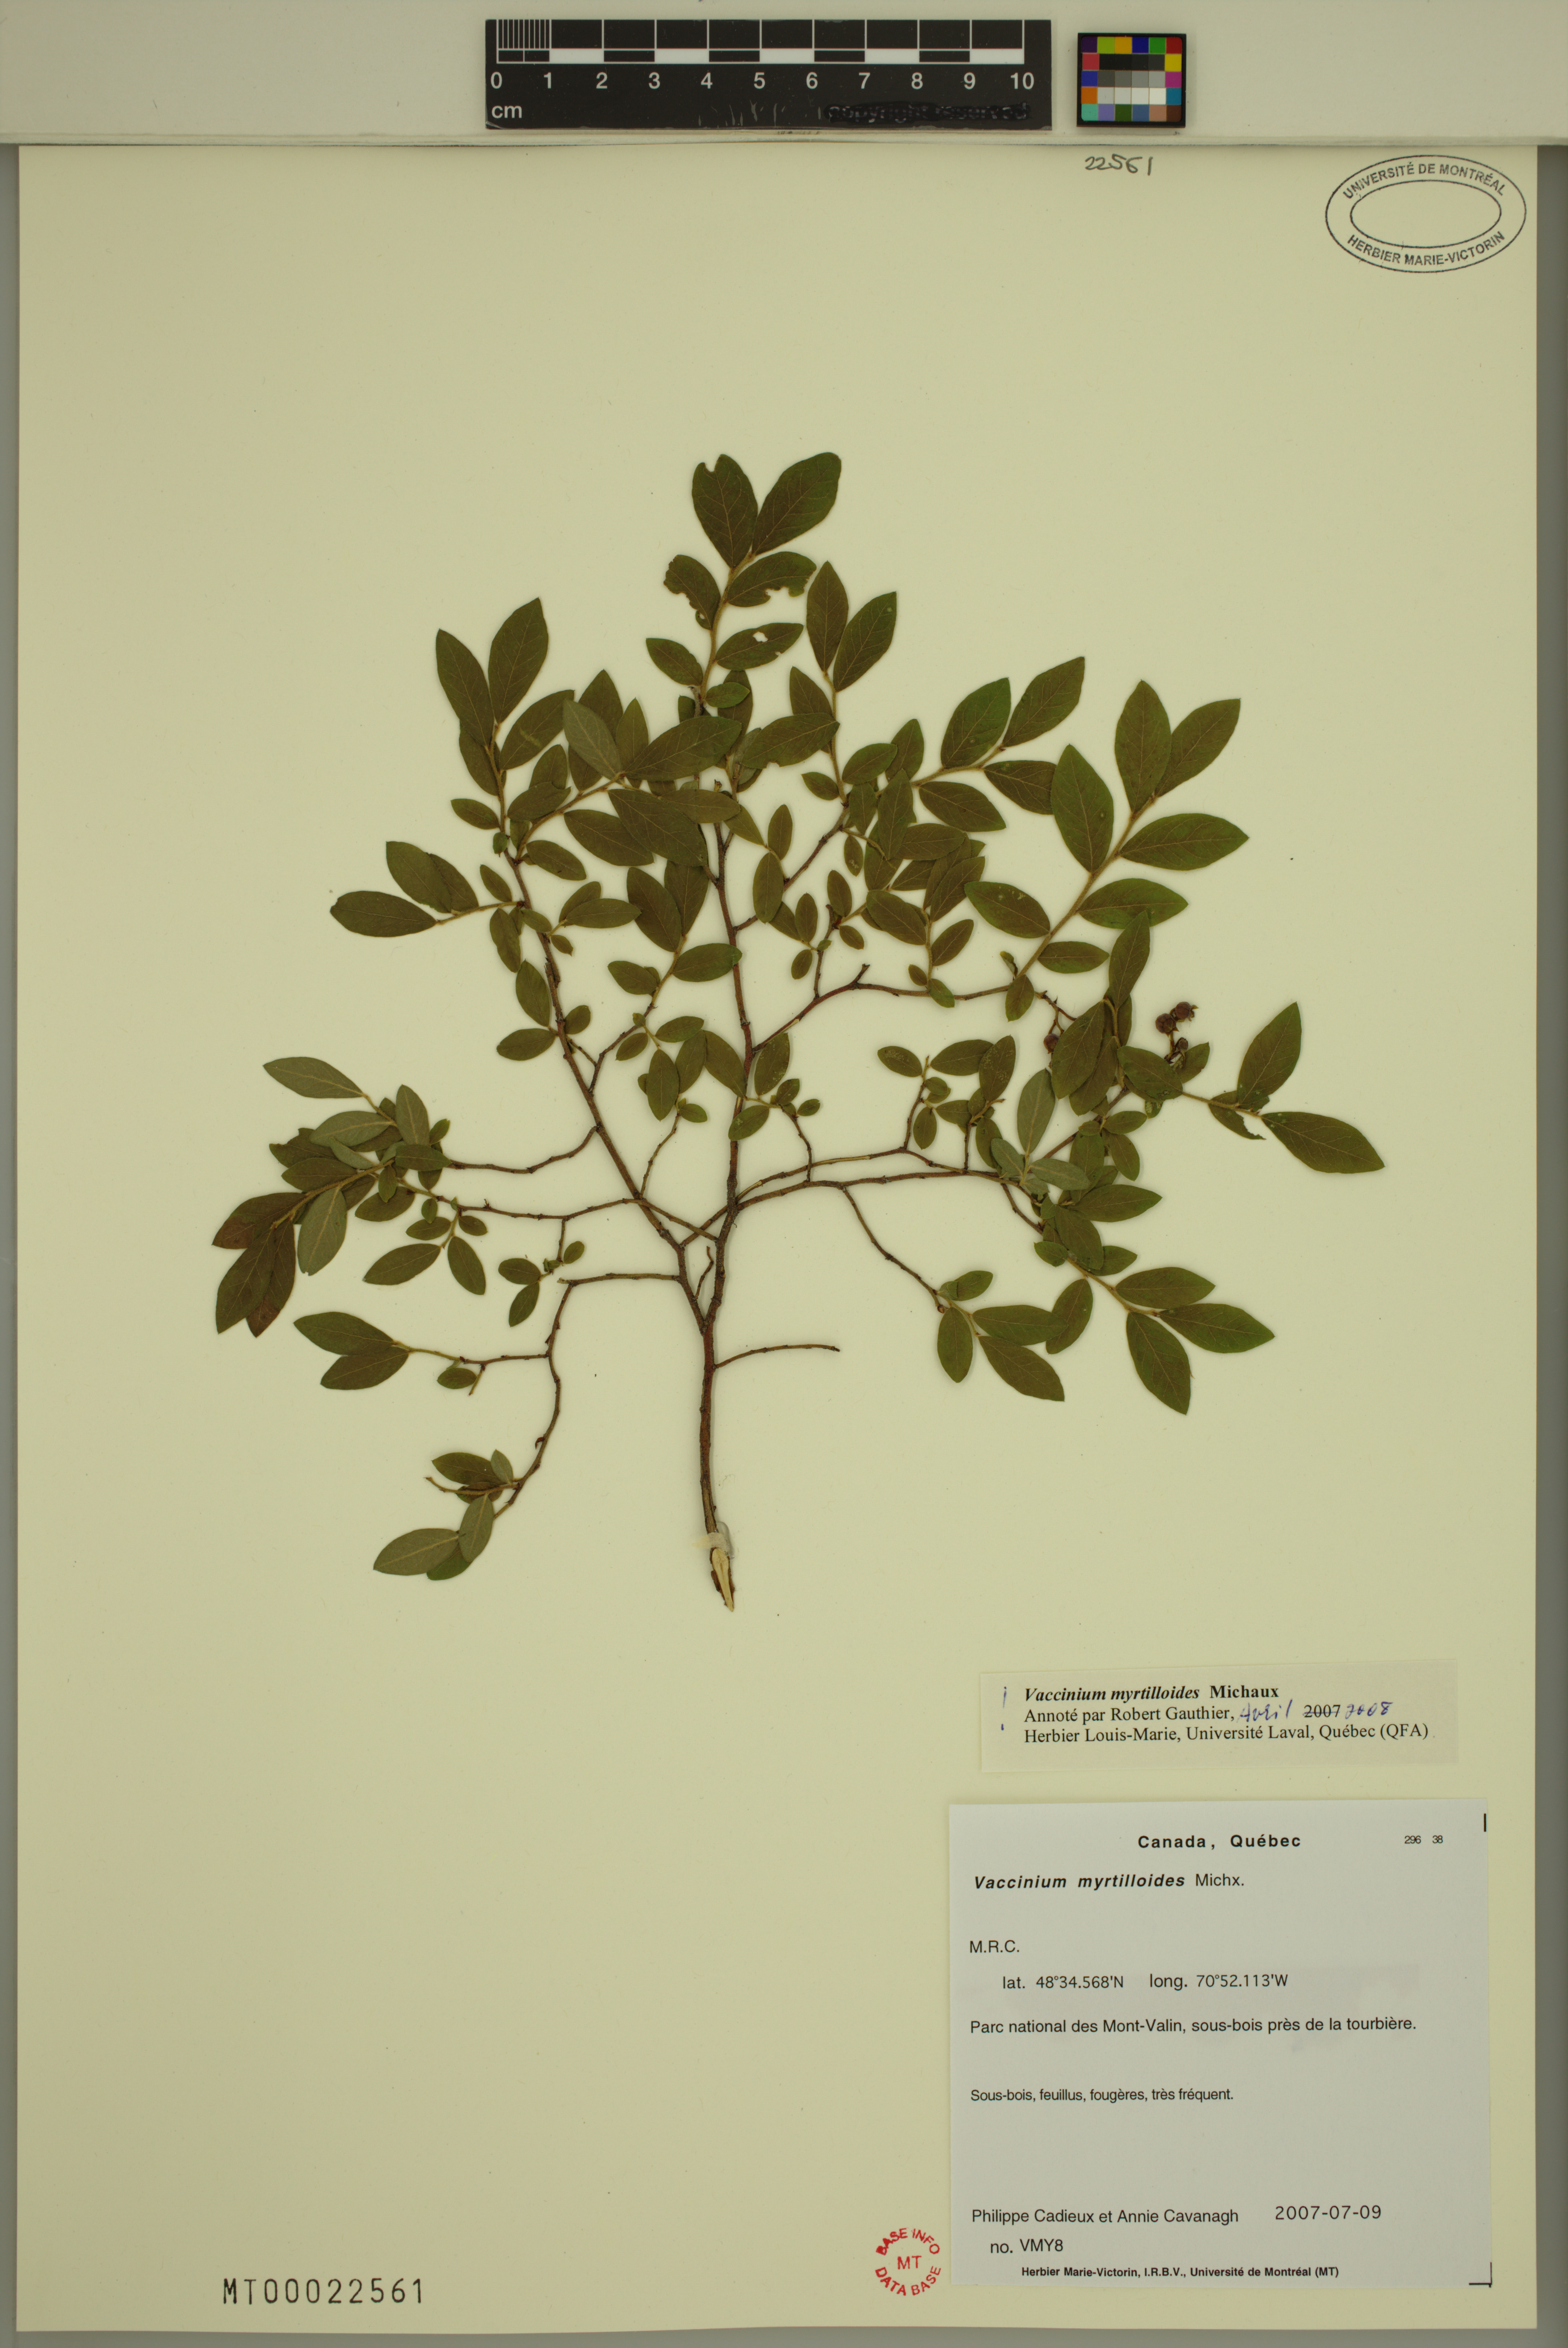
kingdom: Plantae
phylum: Tracheophyta
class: Magnoliopsida
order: Ericales
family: Ericaceae
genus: Vaccinium
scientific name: Vaccinium myrtilloides
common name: Canada blueberry
